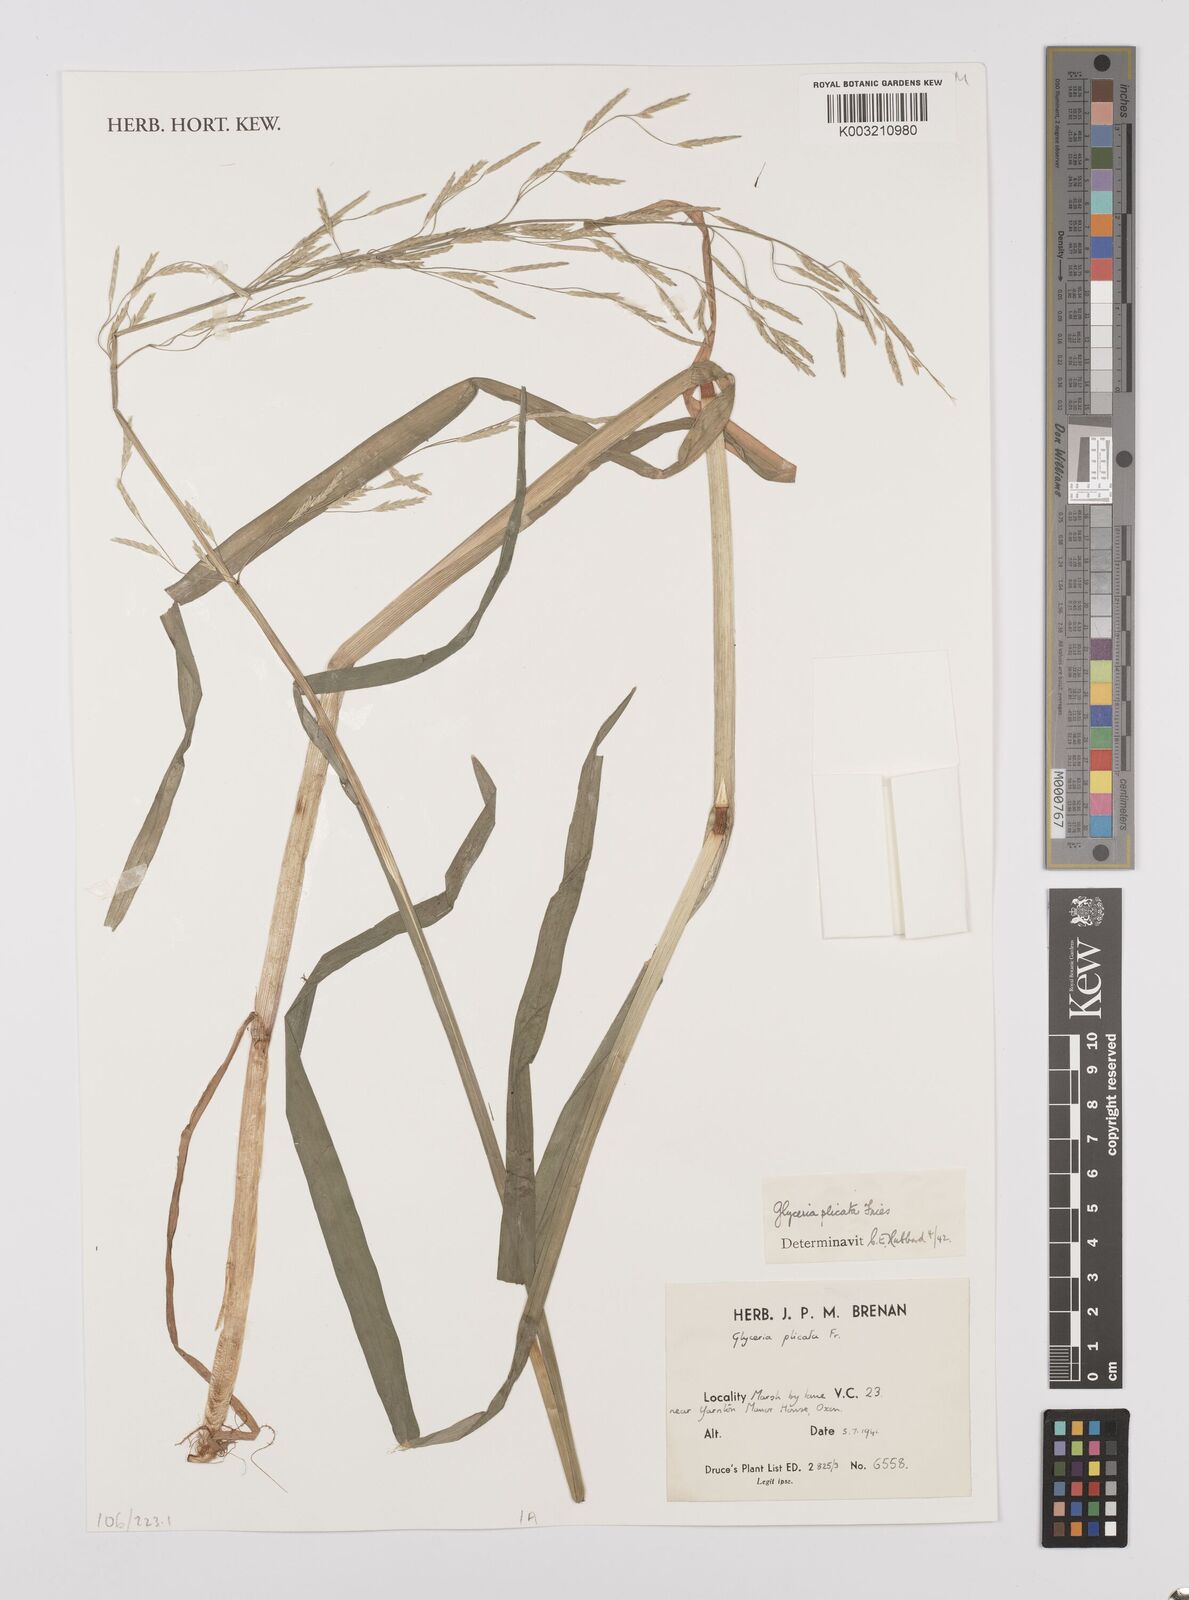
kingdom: Plantae
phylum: Tracheophyta
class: Liliopsida
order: Poales
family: Poaceae
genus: Glyceria
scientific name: Glyceria notata
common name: Plicate sweet-grass
